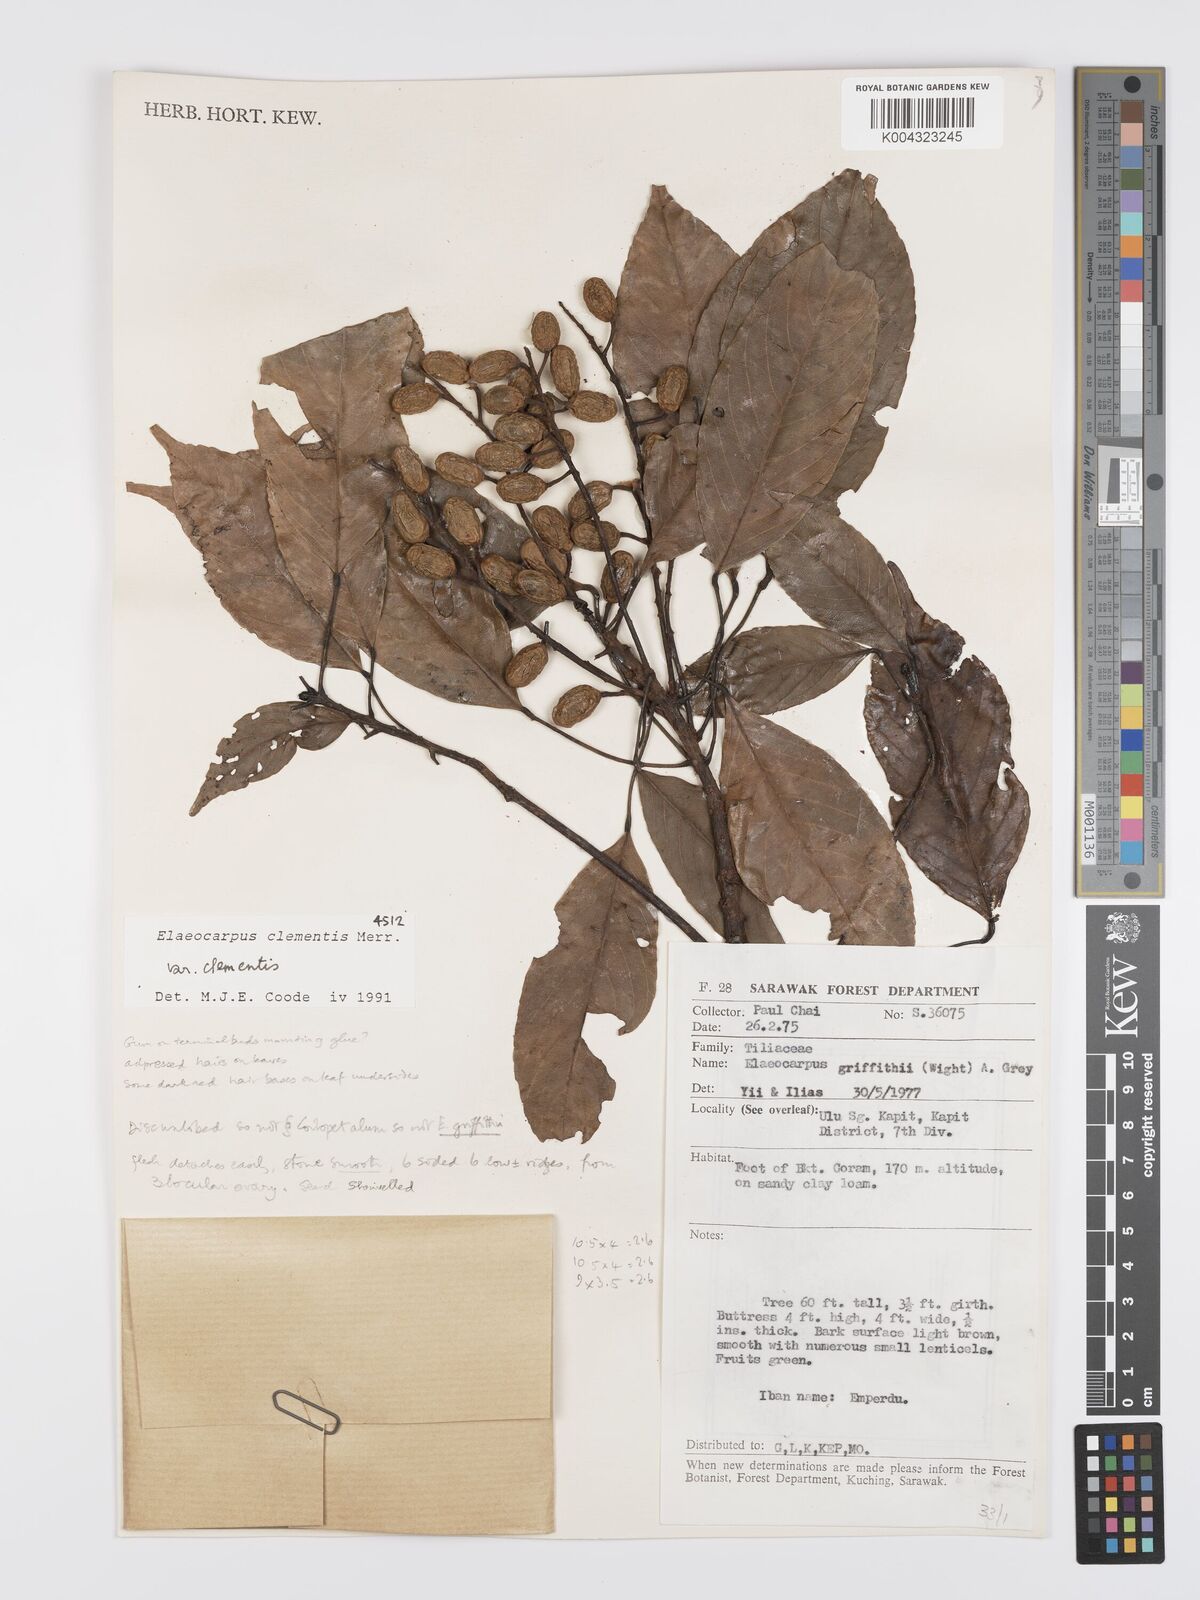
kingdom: Plantae
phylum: Tracheophyta
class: Magnoliopsida
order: Oxalidales
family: Elaeocarpaceae
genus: Elaeocarpus
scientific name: Elaeocarpus clementis
